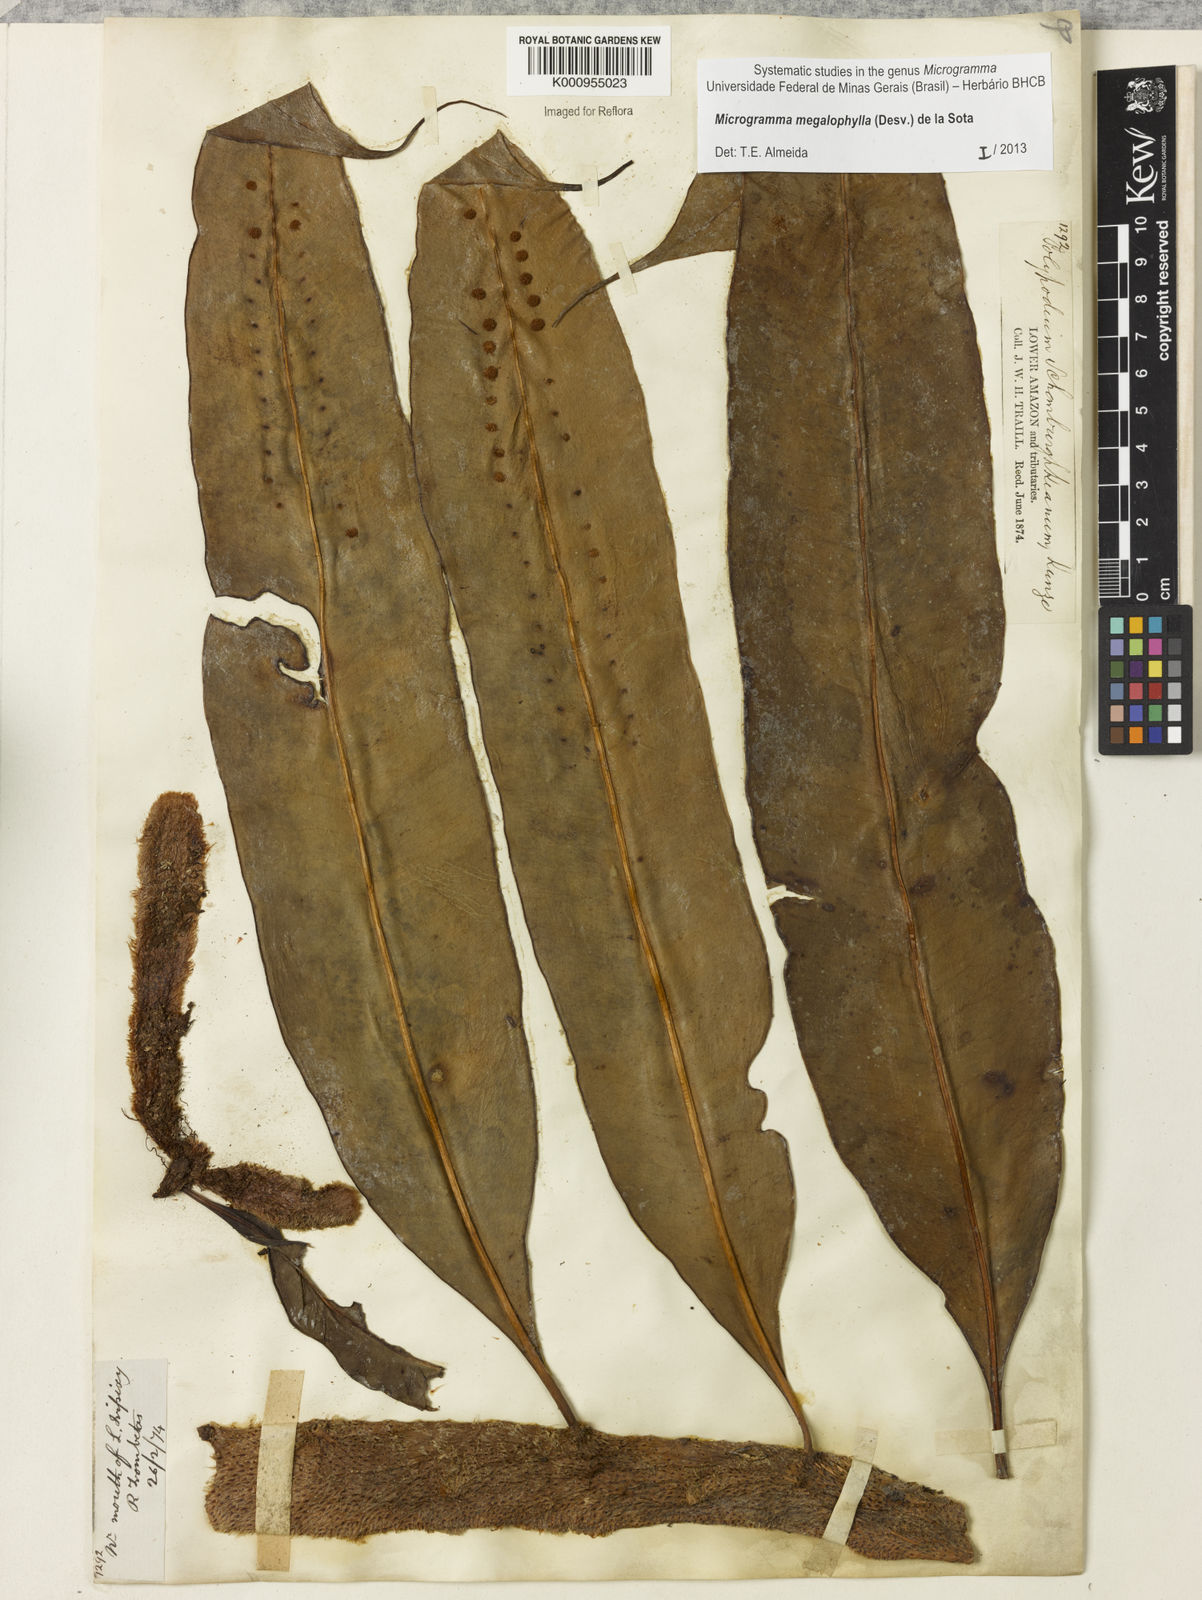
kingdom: Plantae
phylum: Tracheophyta
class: Polypodiopsida
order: Polypodiales
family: Polypodiaceae
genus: Microgramma
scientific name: Microgramma megalophylla
